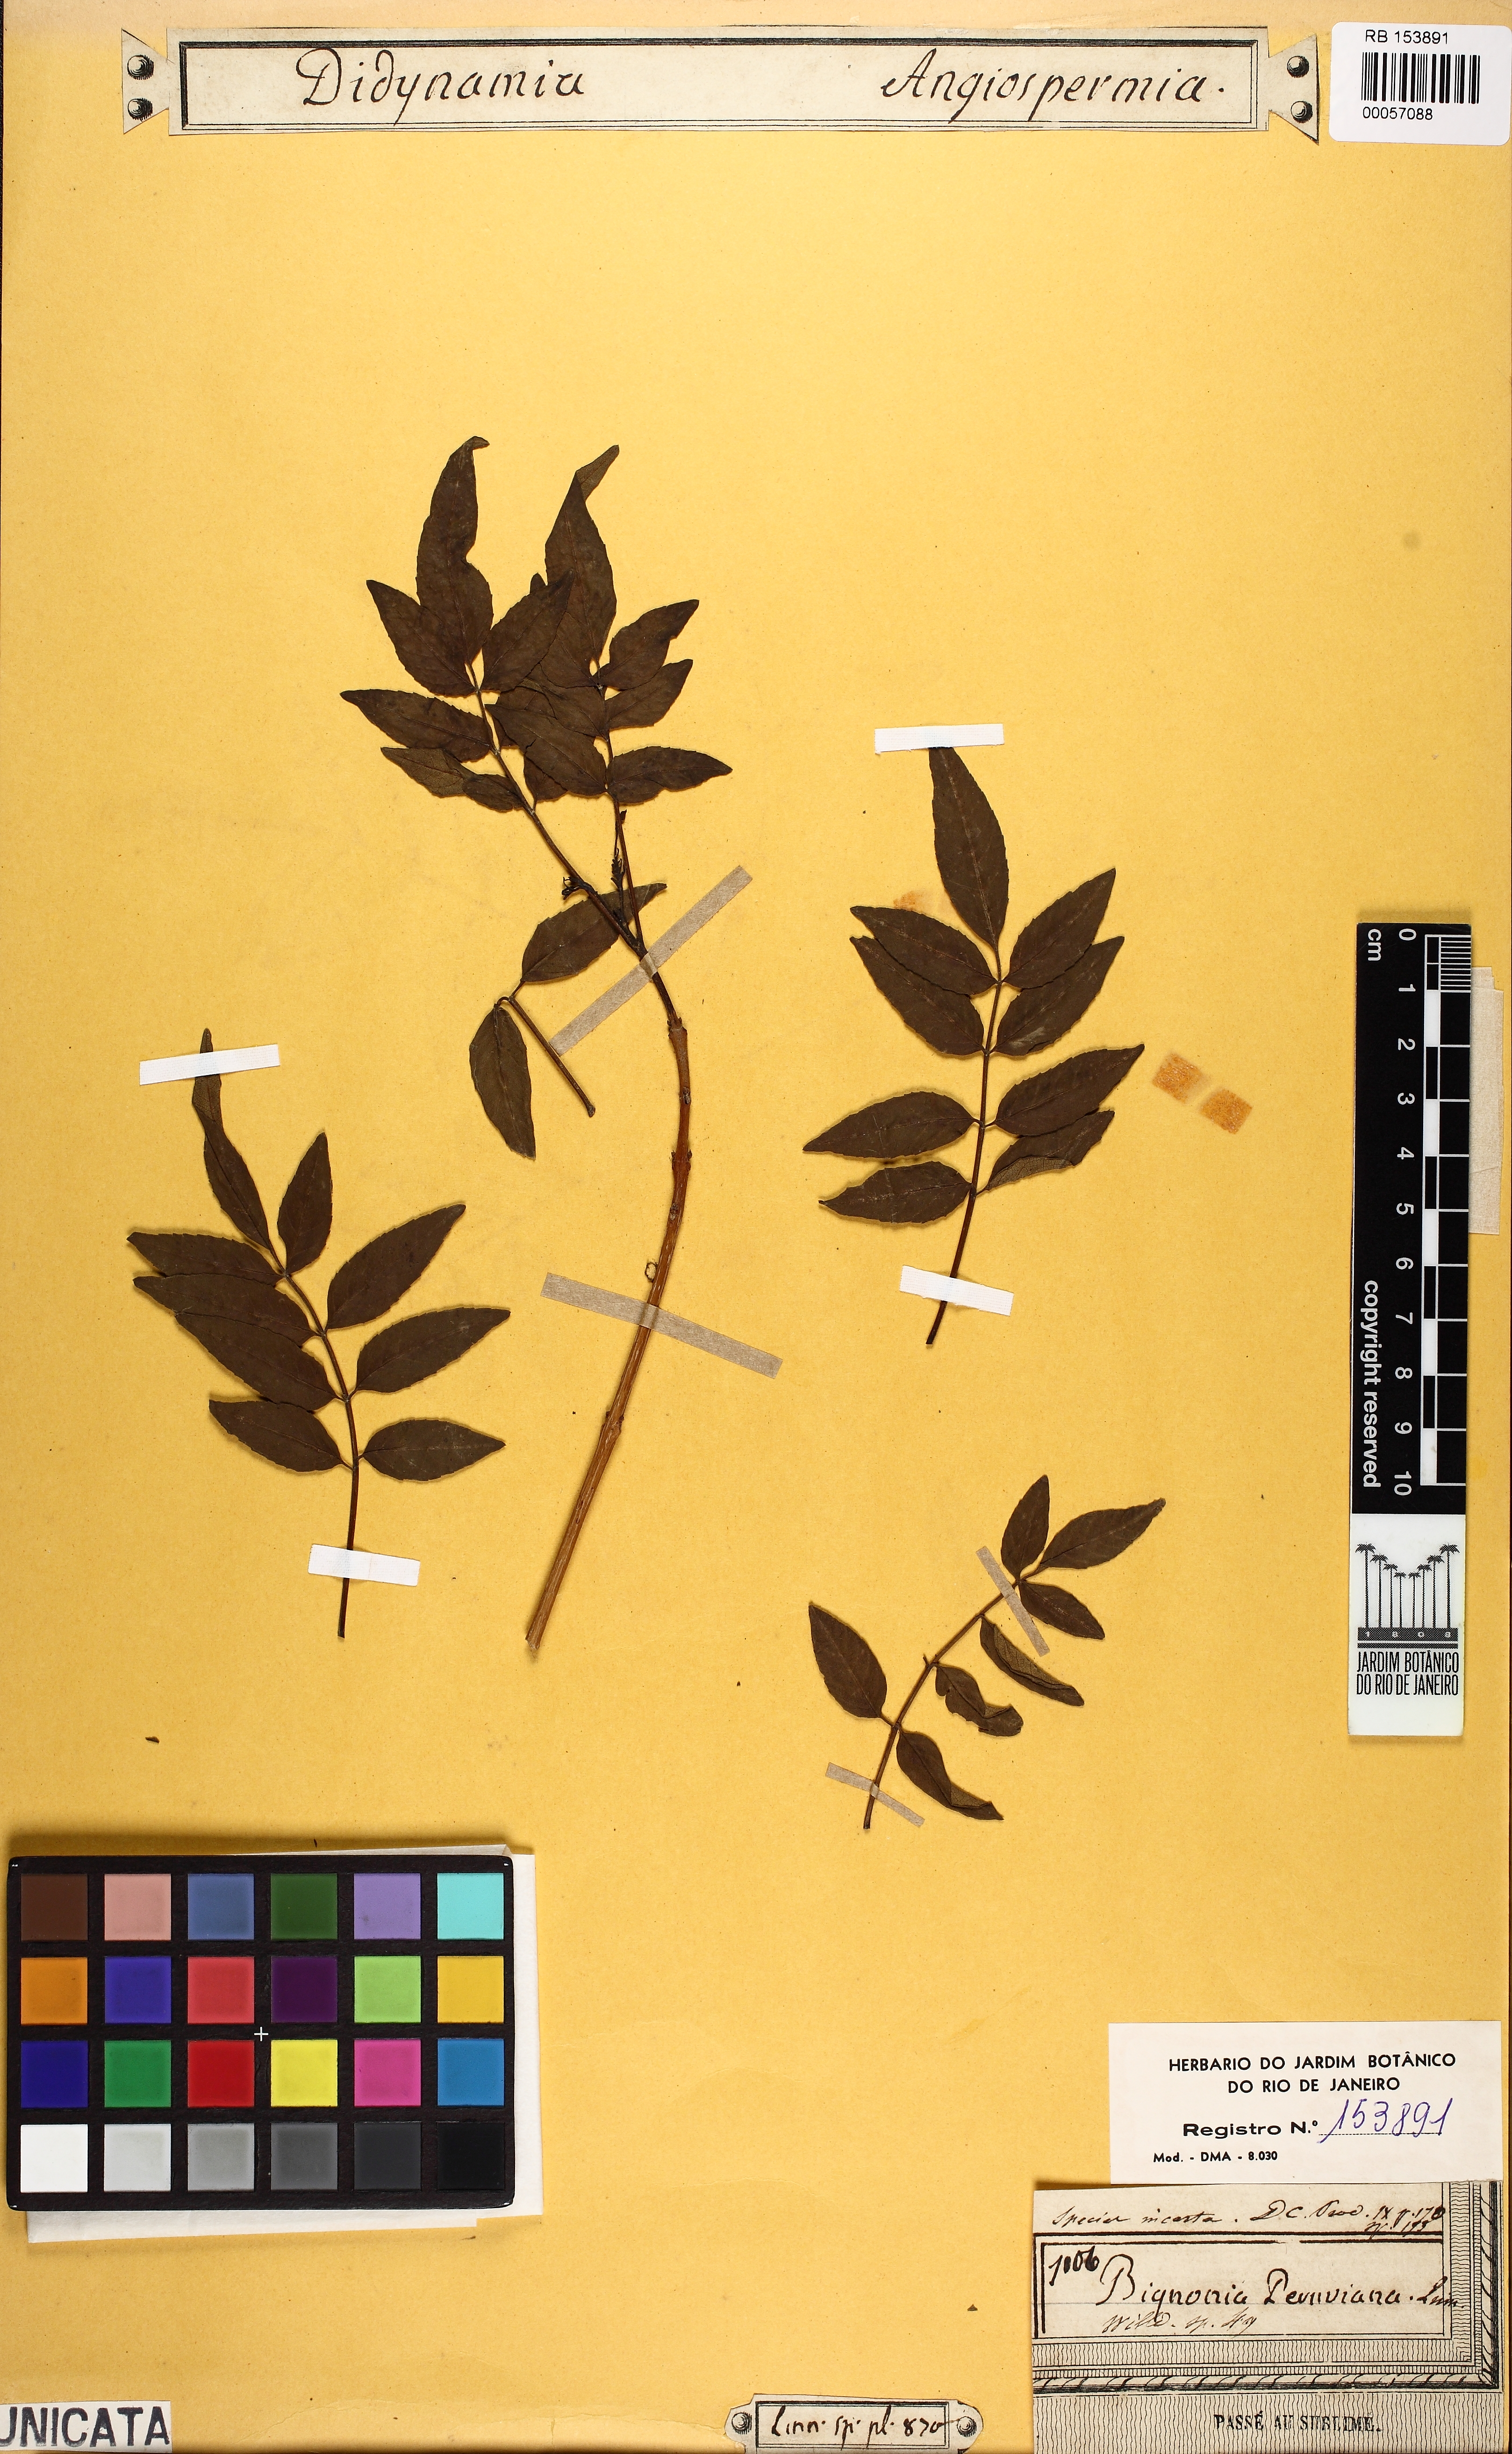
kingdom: Plantae
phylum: Tracheophyta
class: Magnoliopsida
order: Vitales
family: Vitaceae
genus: Nekemias
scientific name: Nekemias arborea
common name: Peppervine
